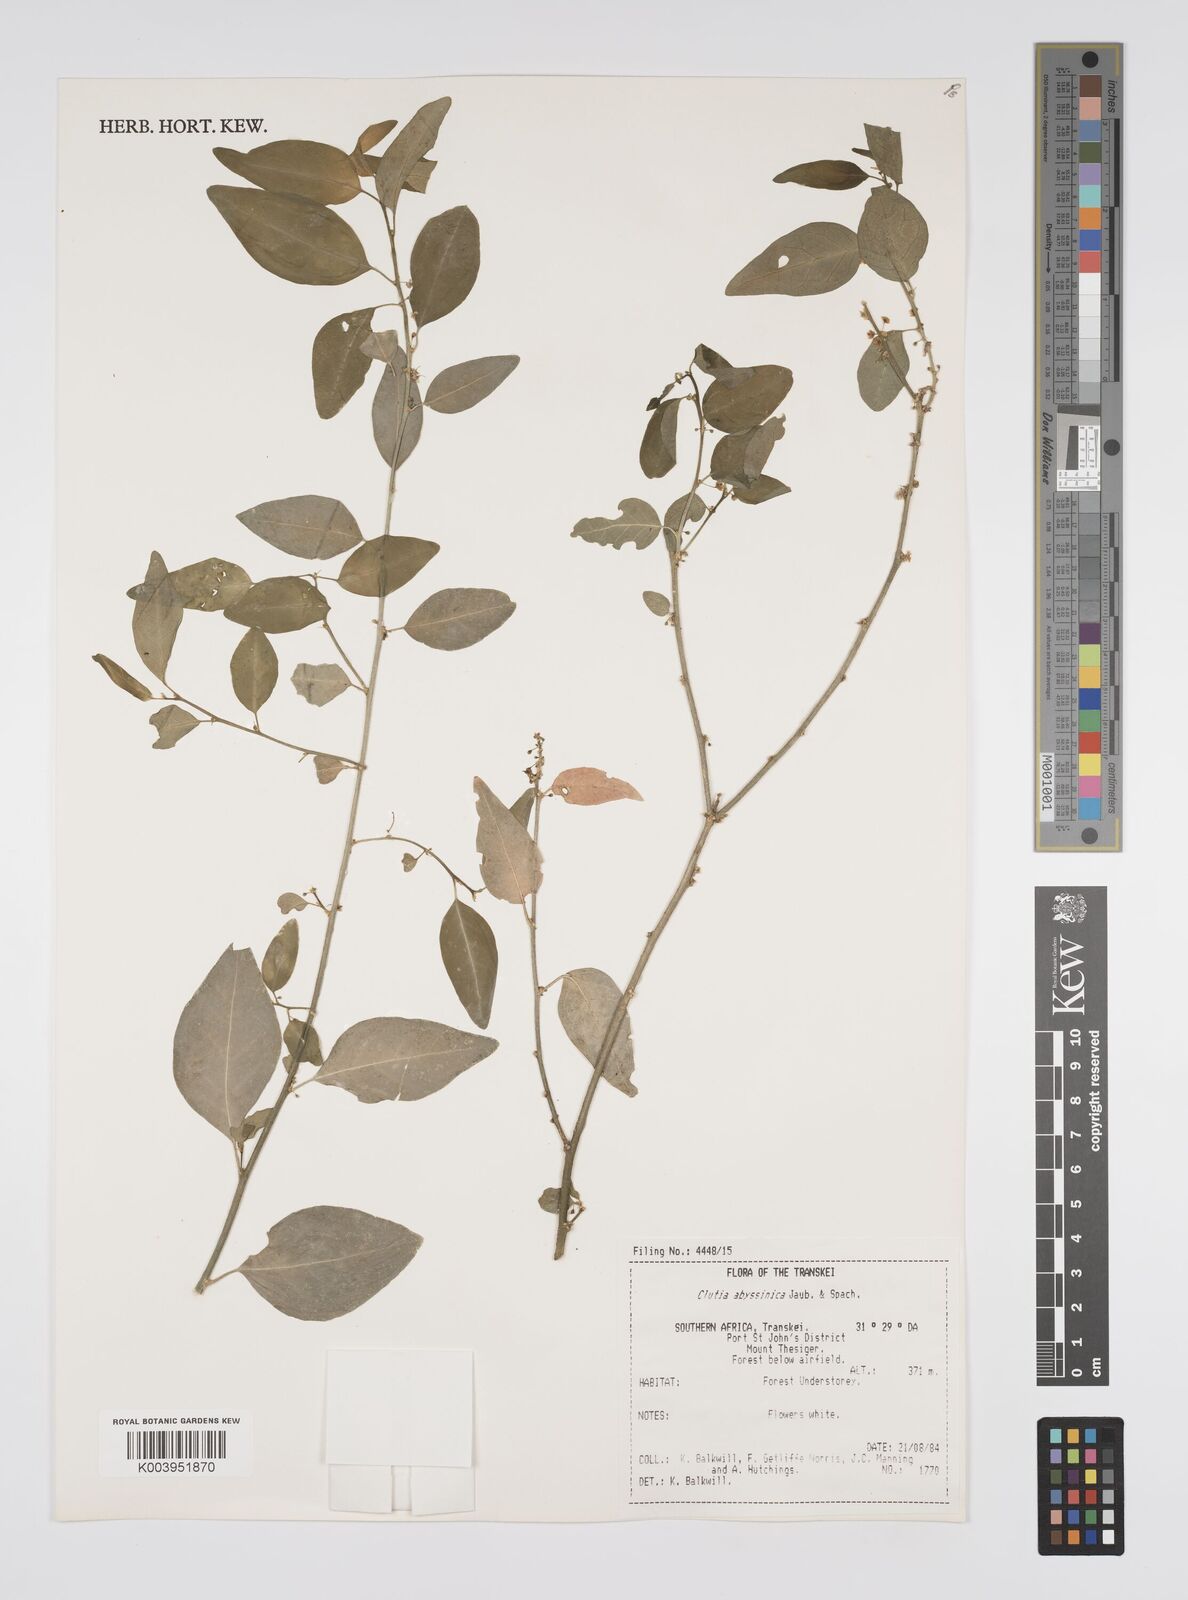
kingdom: Plantae
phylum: Tracheophyta
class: Magnoliopsida
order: Malpighiales
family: Peraceae
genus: Clutia
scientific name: Clutia abyssinica
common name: Large lightning bush
